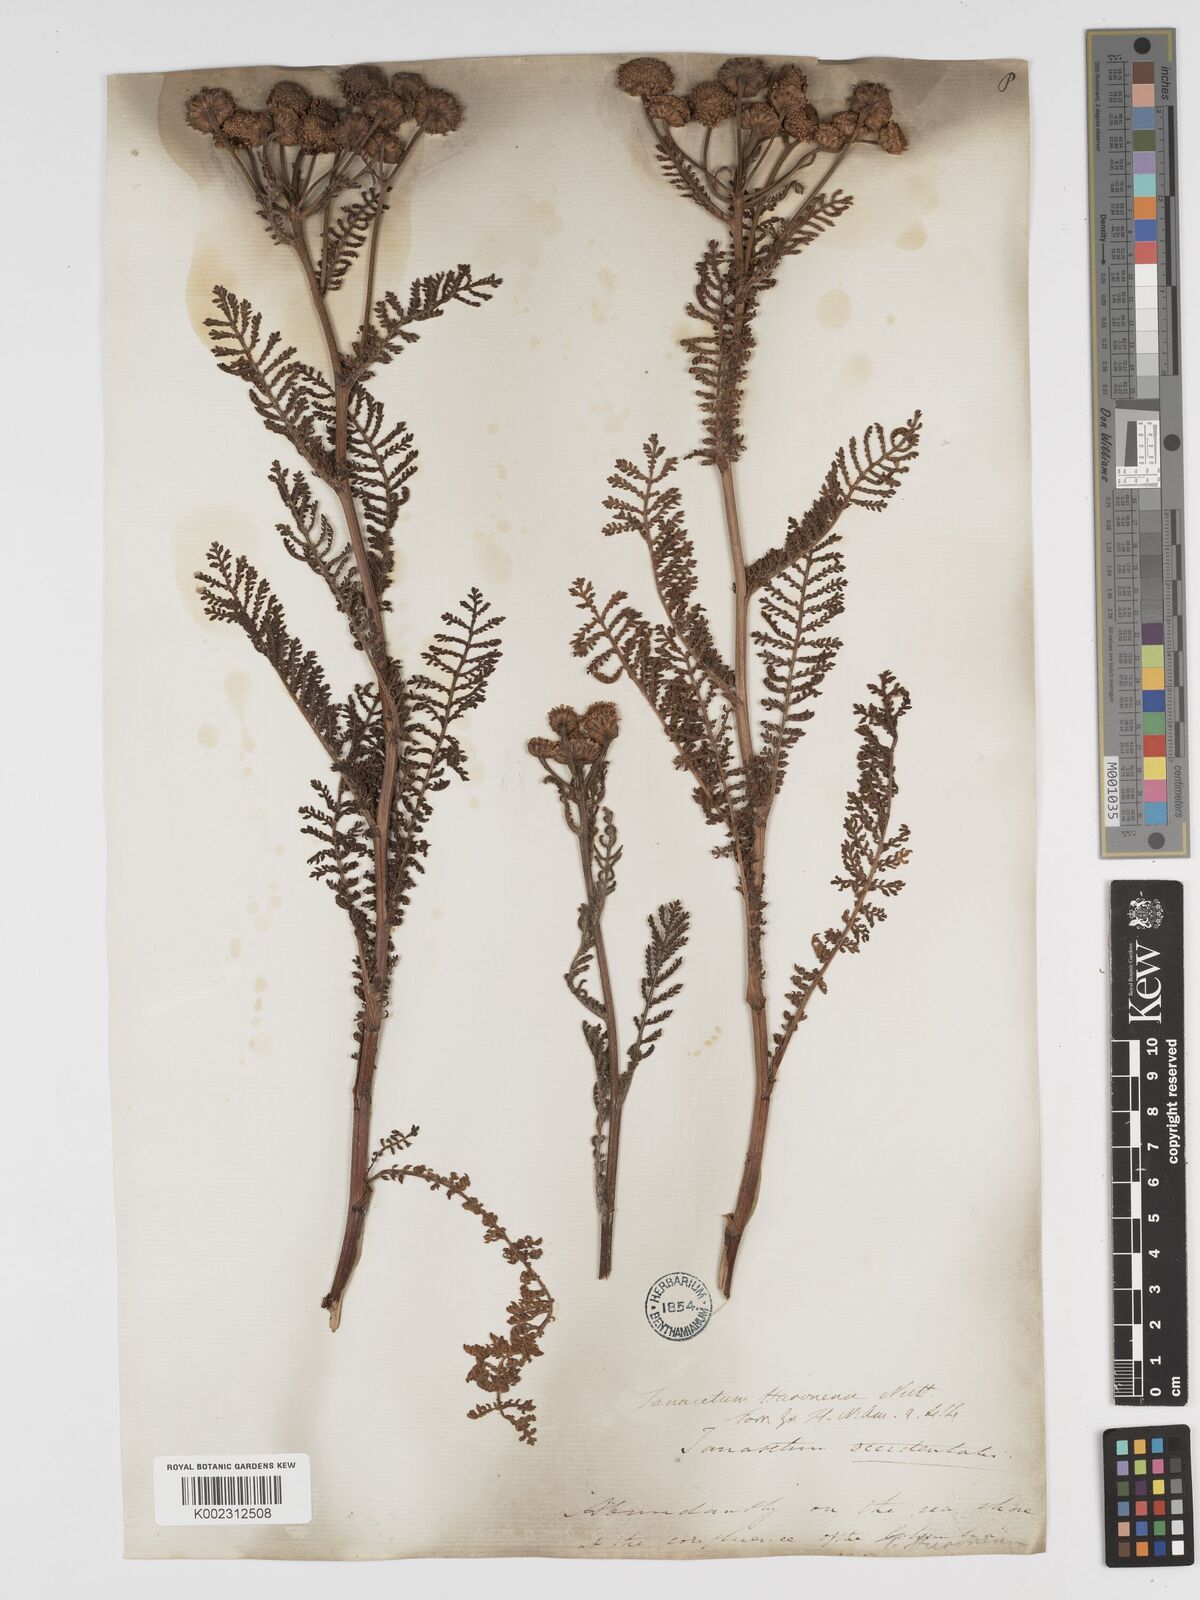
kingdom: Plantae
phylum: Tracheophyta
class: Magnoliopsida
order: Asterales
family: Asteraceae
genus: Tanacetum
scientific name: Tanacetum bipinnatum
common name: Dwarf tansy
